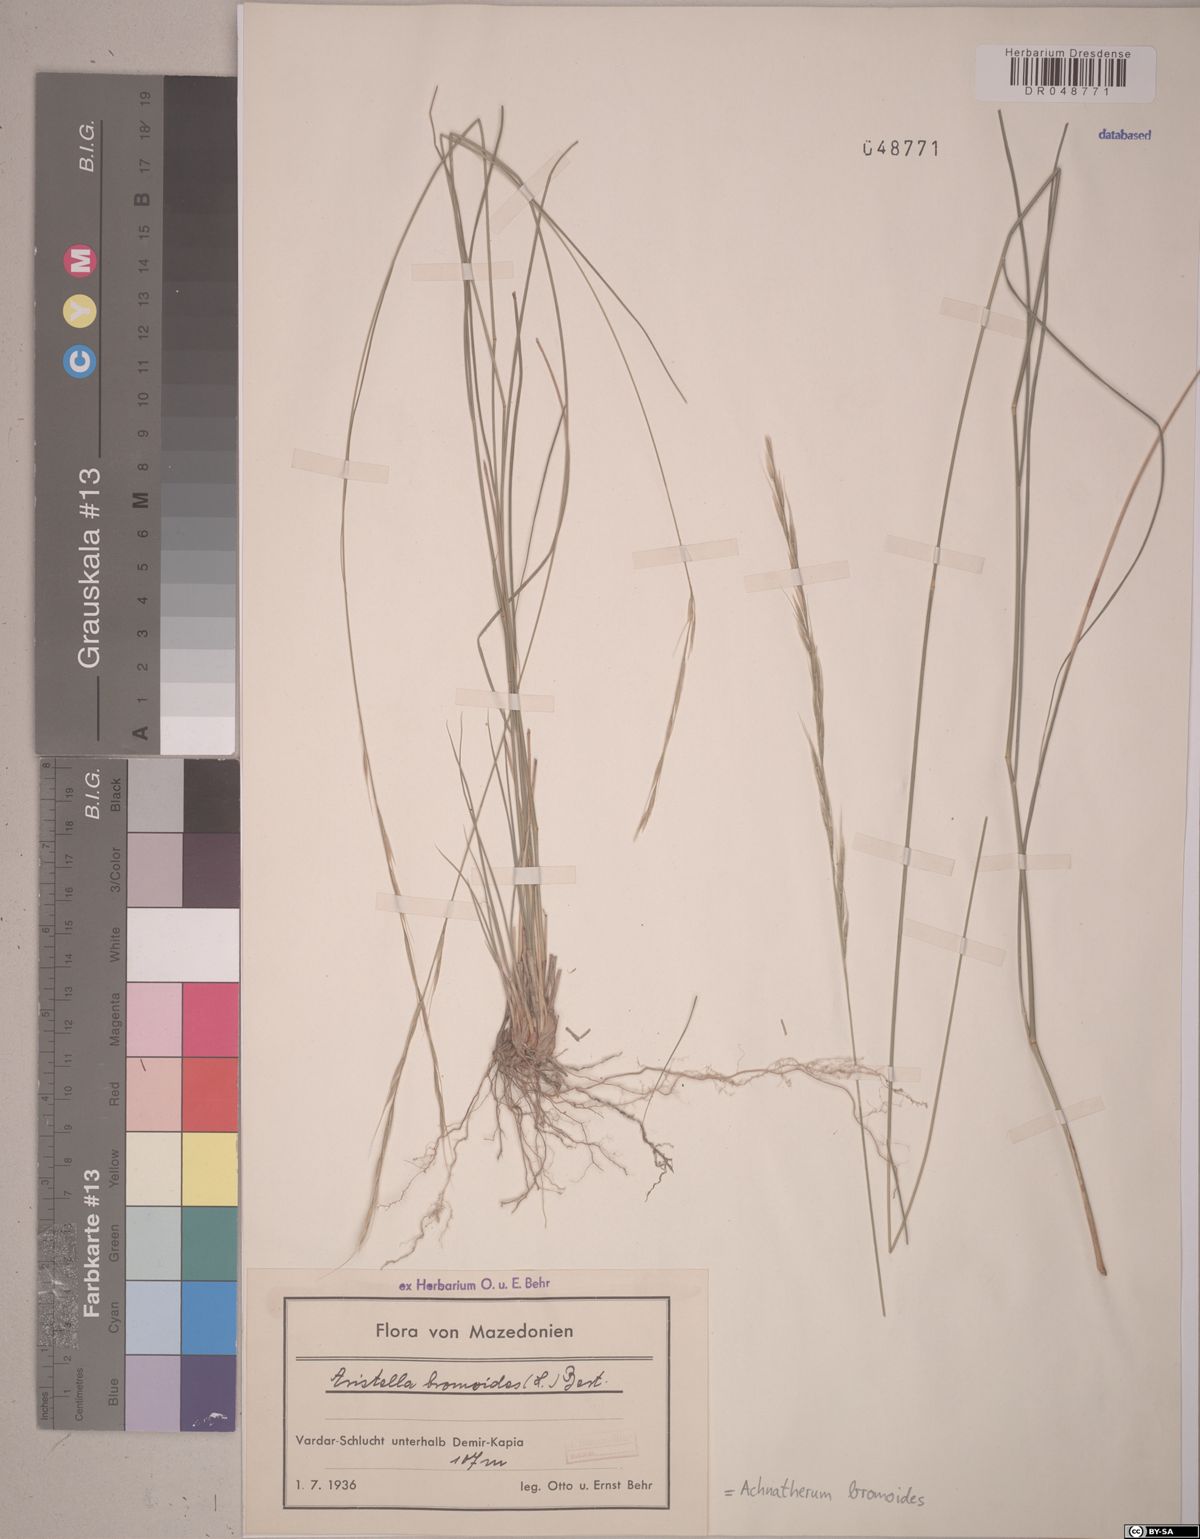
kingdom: Plantae
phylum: Tracheophyta
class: Liliopsida
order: Poales
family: Poaceae
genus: Achnatherum
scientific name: Achnatherum bromoides
